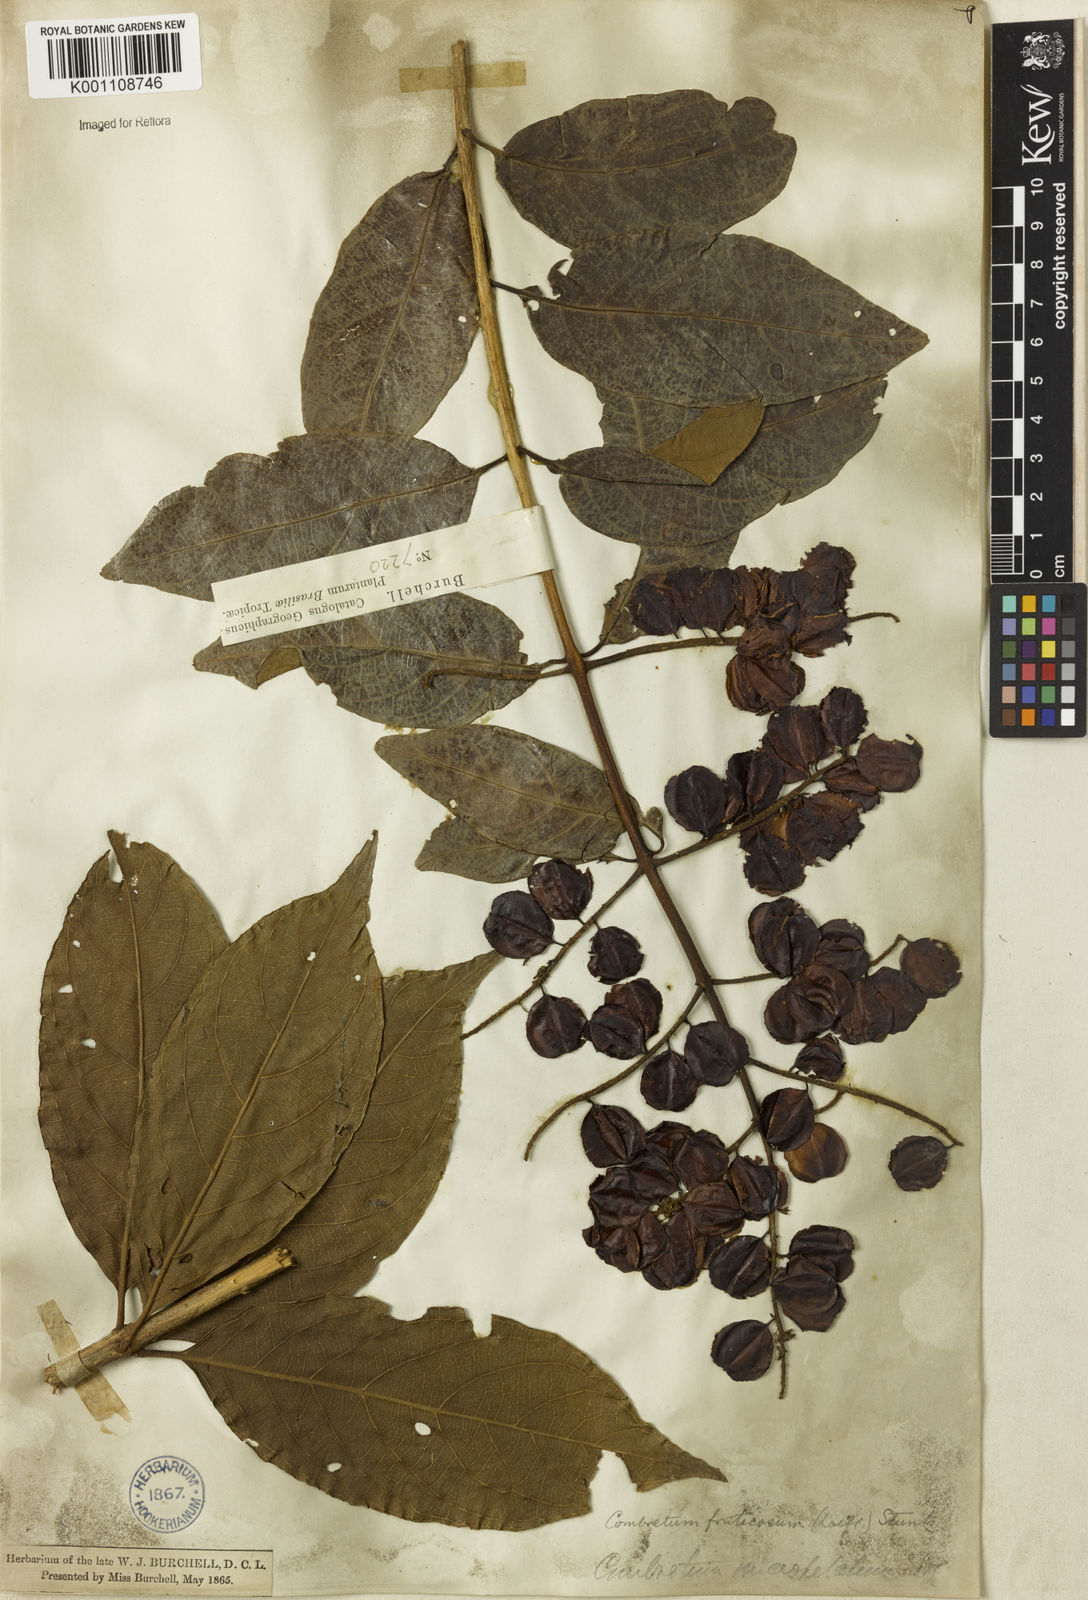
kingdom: Plantae
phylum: Tracheophyta
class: Magnoliopsida
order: Myrtales
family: Combretaceae
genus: Combretum
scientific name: Combretum fruticosum
